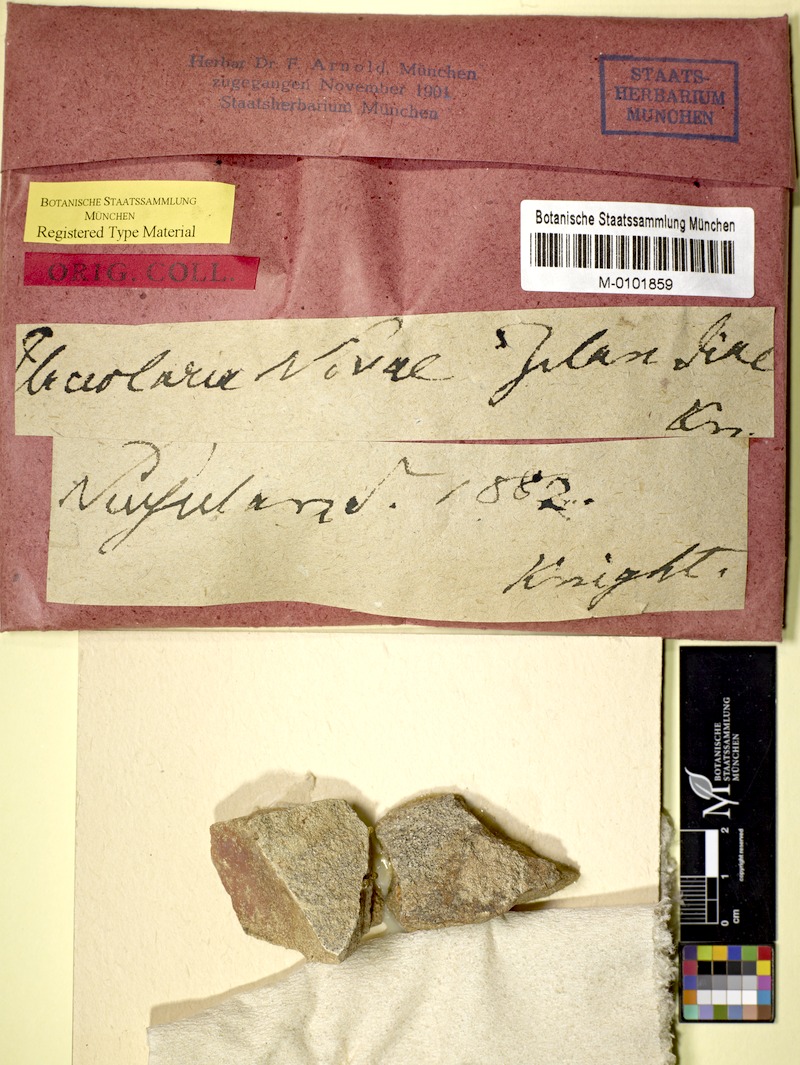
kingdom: Fungi
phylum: Ascomycota
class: Lecanoromycetes
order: Ostropales
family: Graphidaceae
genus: Diploschistes
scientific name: Diploschistes euganeus
